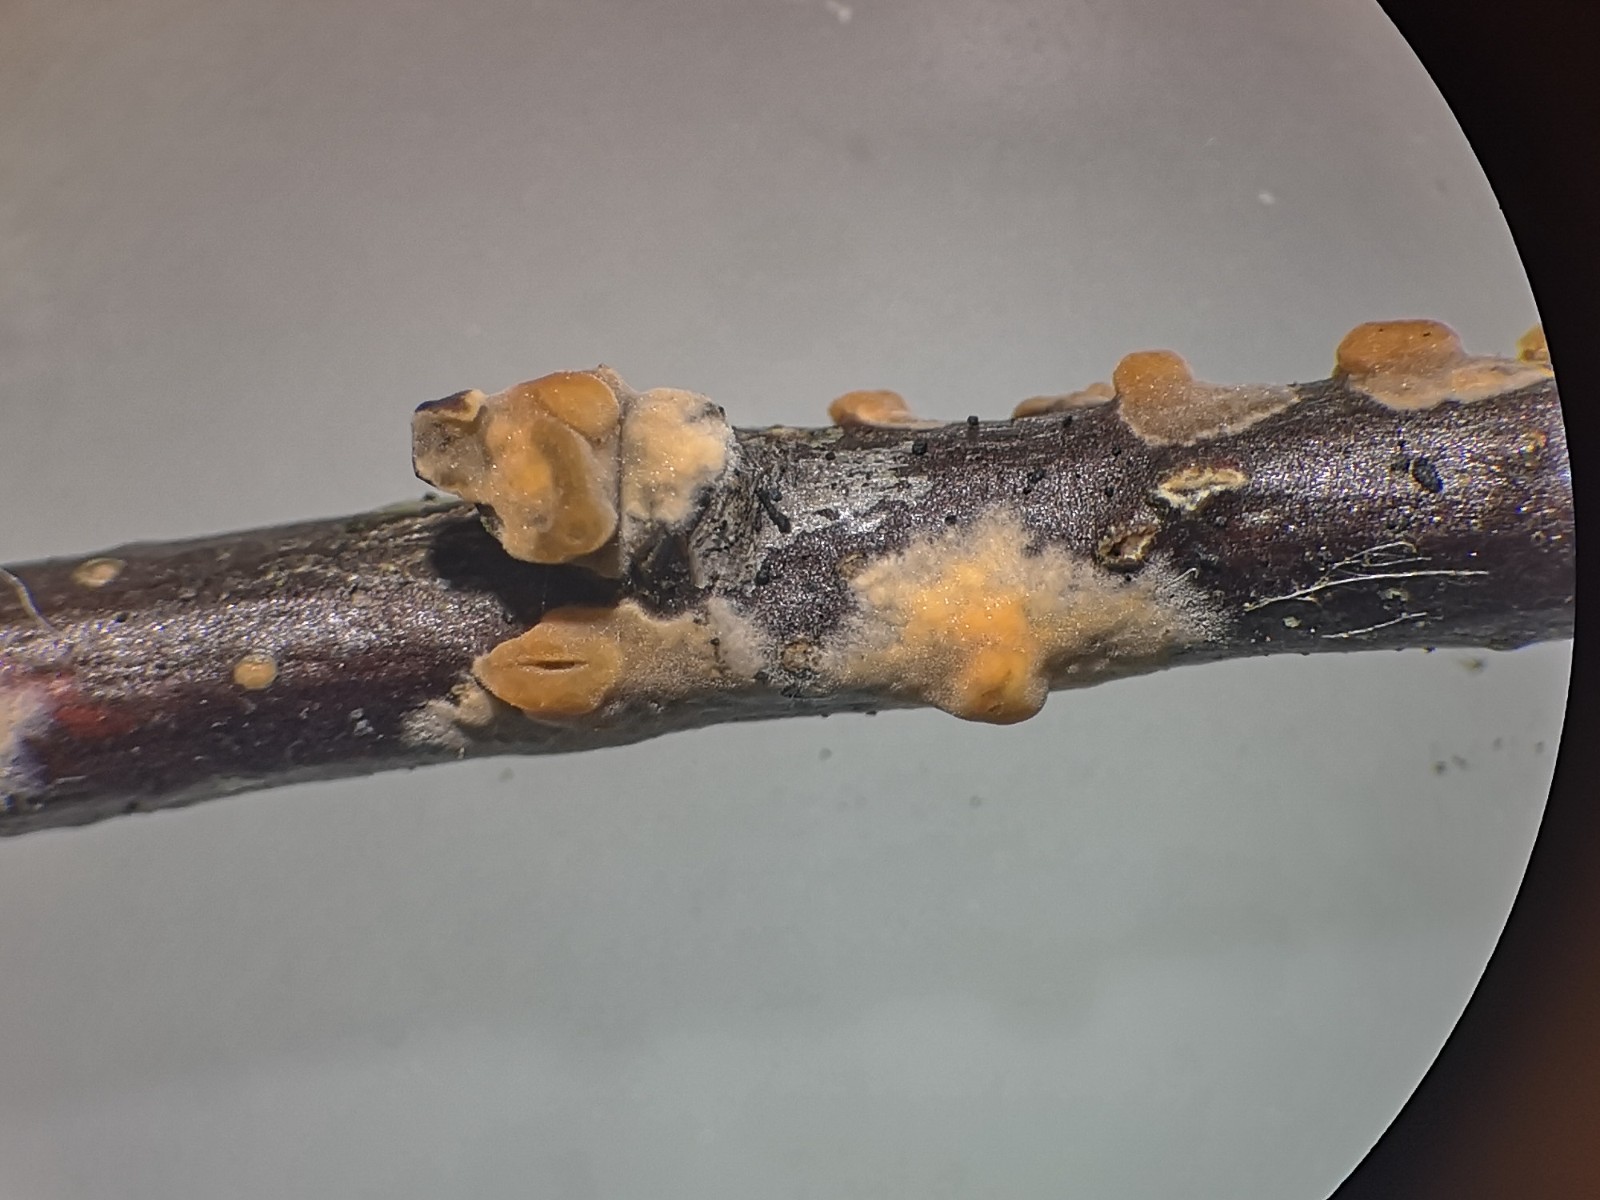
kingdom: Fungi
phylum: Basidiomycota
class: Agaricomycetes
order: Russulales
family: Peniophoraceae
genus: Peniophora
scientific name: Peniophora
